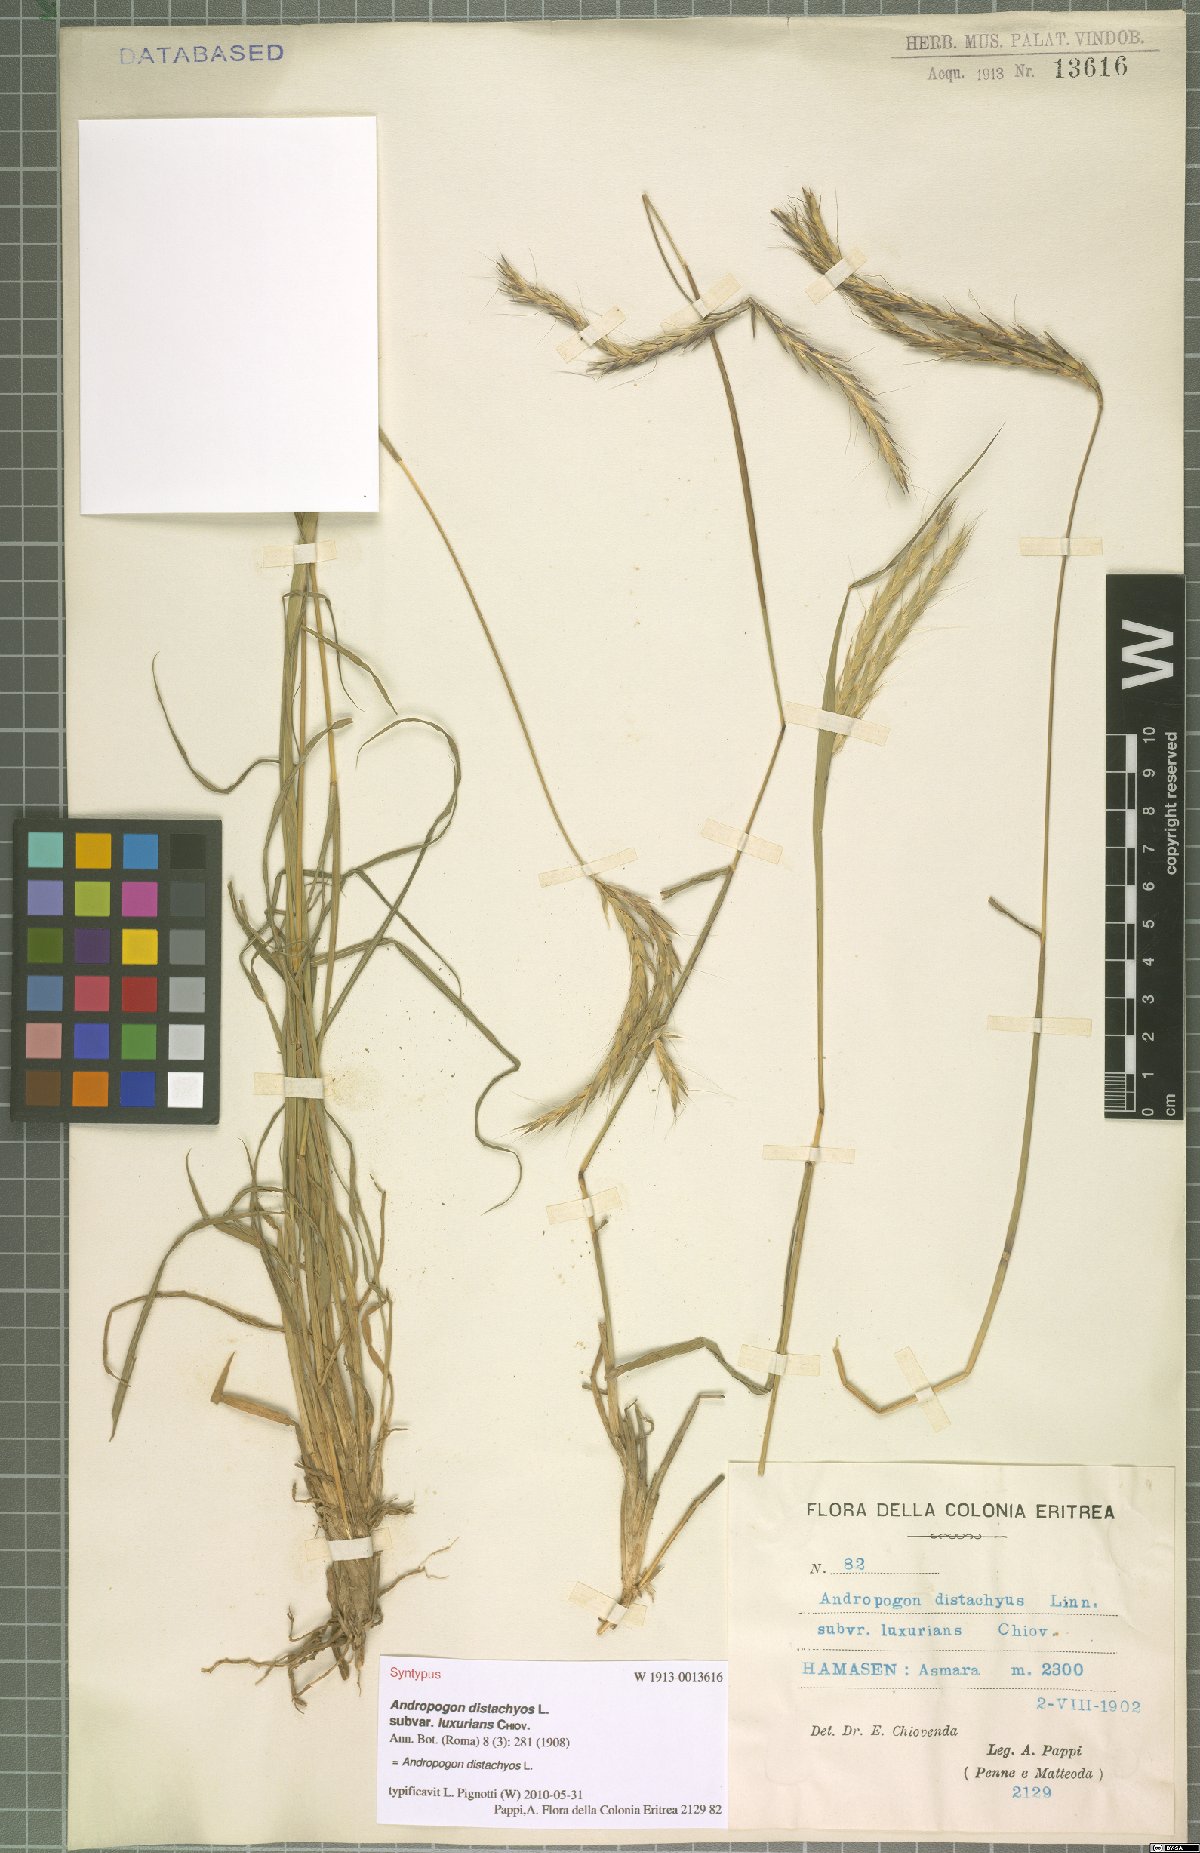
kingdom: Plantae
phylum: Tracheophyta
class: Liliopsida
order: Poales
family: Poaceae
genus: Andropogon
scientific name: Andropogon distachyos
